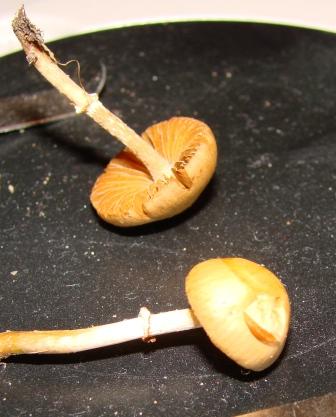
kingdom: Fungi
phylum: Basidiomycota
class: Agaricomycetes
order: Agaricales
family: Bolbitiaceae
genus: Conocybe
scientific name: Conocybe aporos
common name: tidlig dansehat
